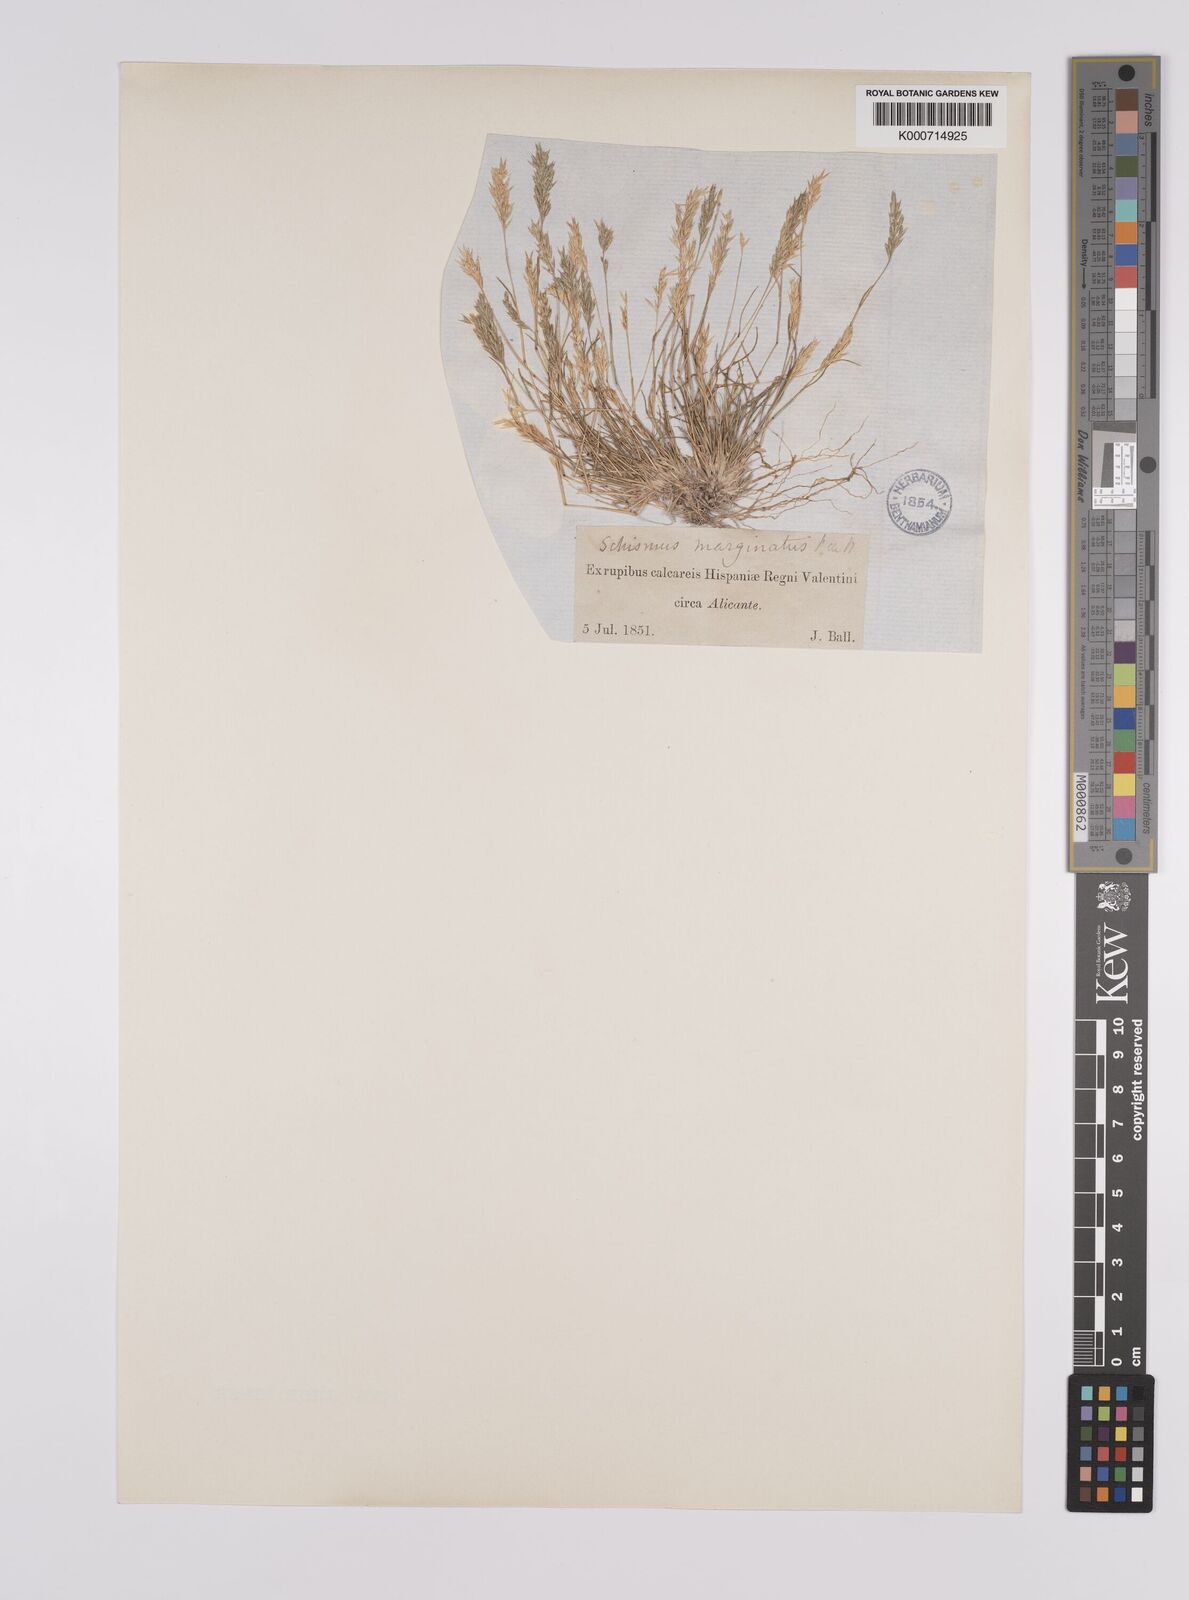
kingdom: Plantae
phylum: Tracheophyta
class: Liliopsida
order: Poales
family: Poaceae
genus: Schismus
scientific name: Schismus barbatus
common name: Kelch-grass
